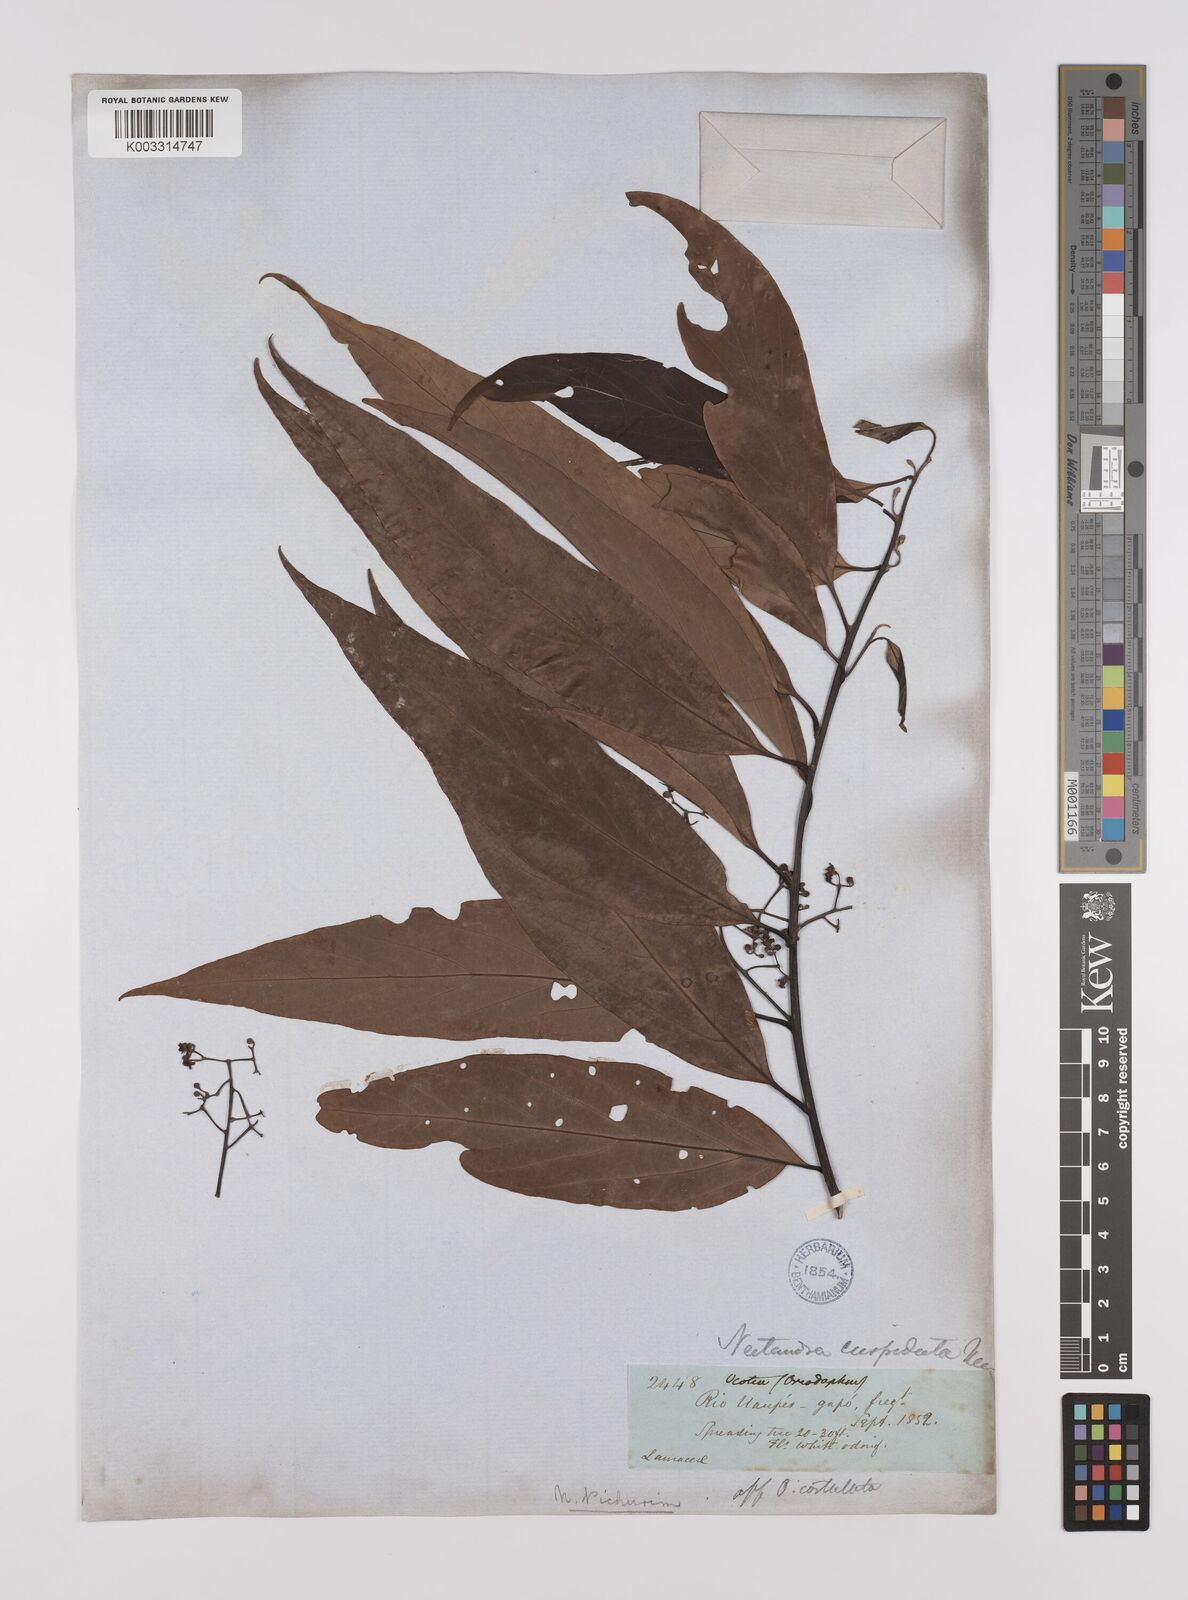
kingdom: Plantae
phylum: Tracheophyta
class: Magnoliopsida
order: Laurales
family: Lauraceae
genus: Nectandra
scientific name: Nectandra cuspidata
